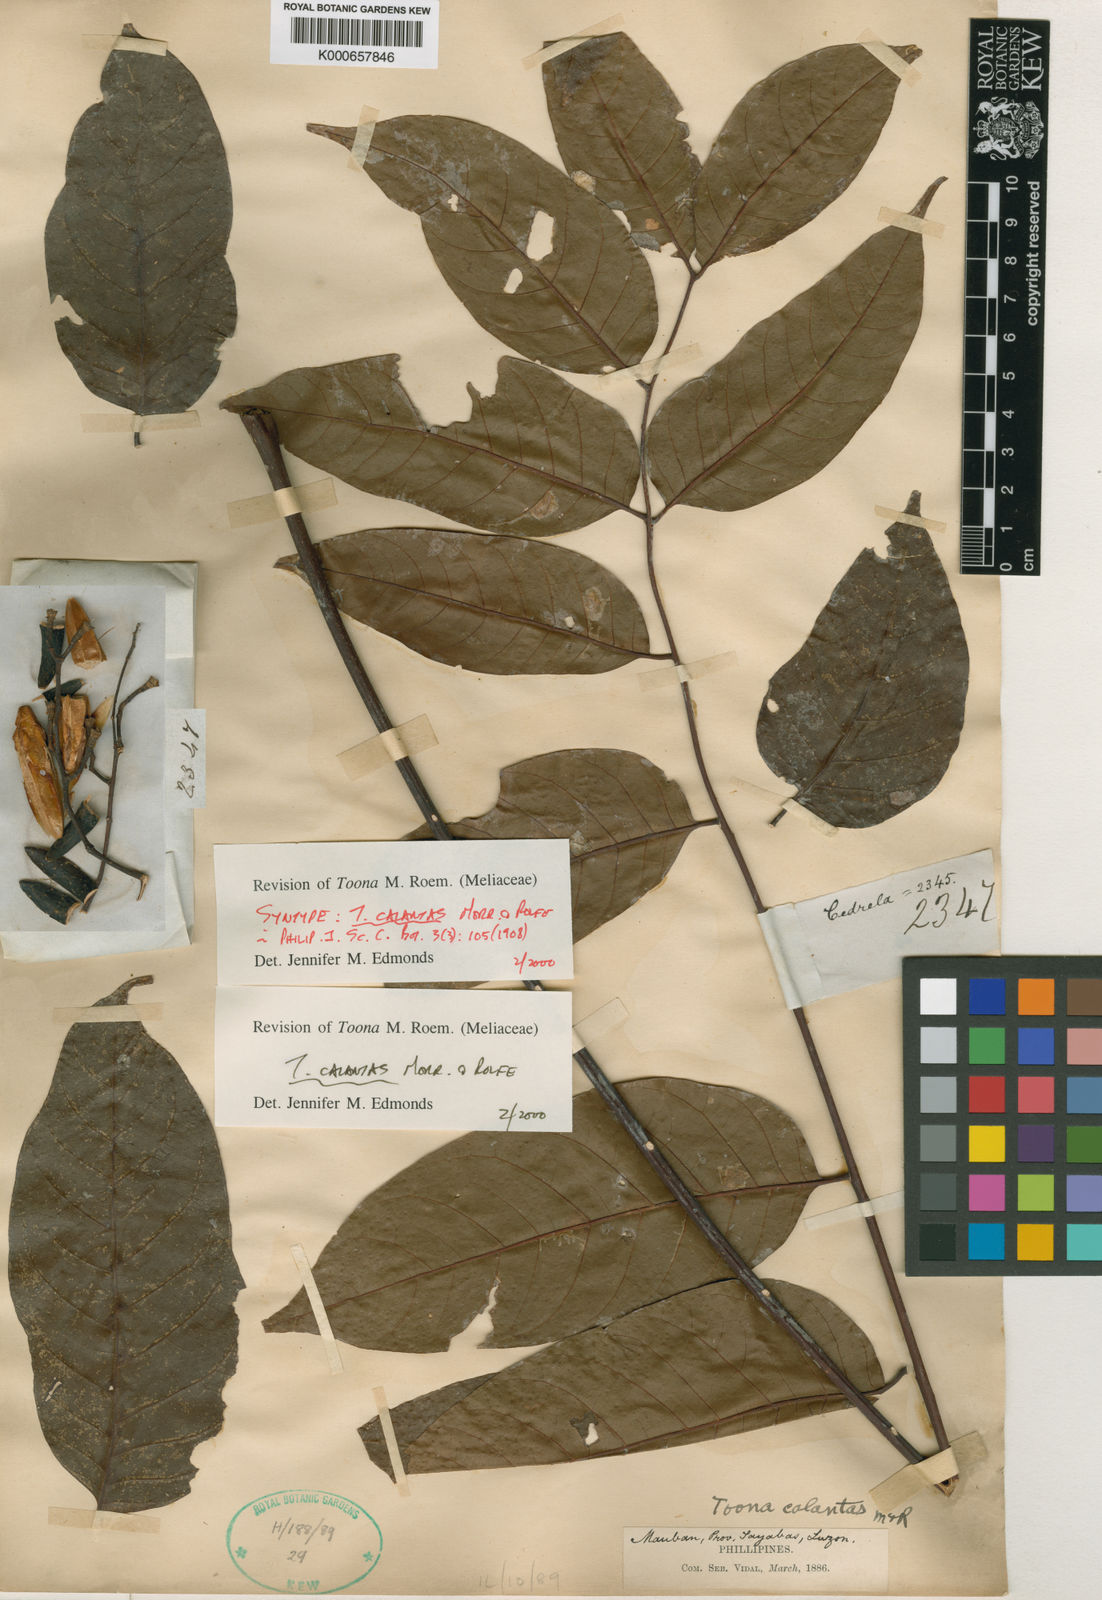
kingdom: Plantae
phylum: Tracheophyta
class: Magnoliopsida
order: Sapindales
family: Meliaceae
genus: Toona
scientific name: Toona calantas
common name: Philippine cedar
